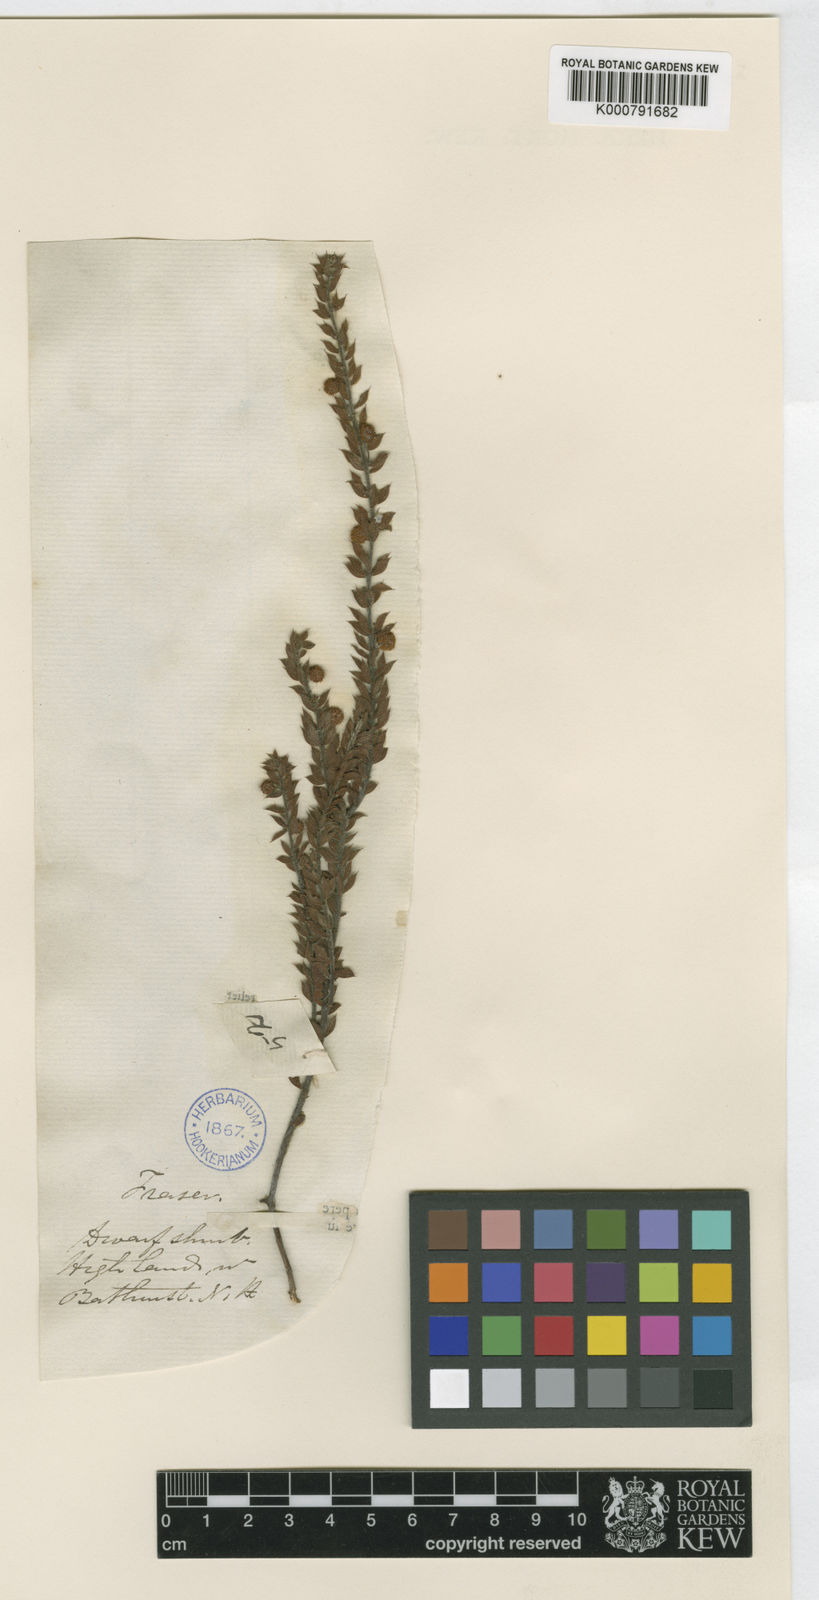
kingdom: Plantae
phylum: Tracheophyta
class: Magnoliopsida
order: Fabales
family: Fabaceae
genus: Acacia
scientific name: Acacia gunnii
